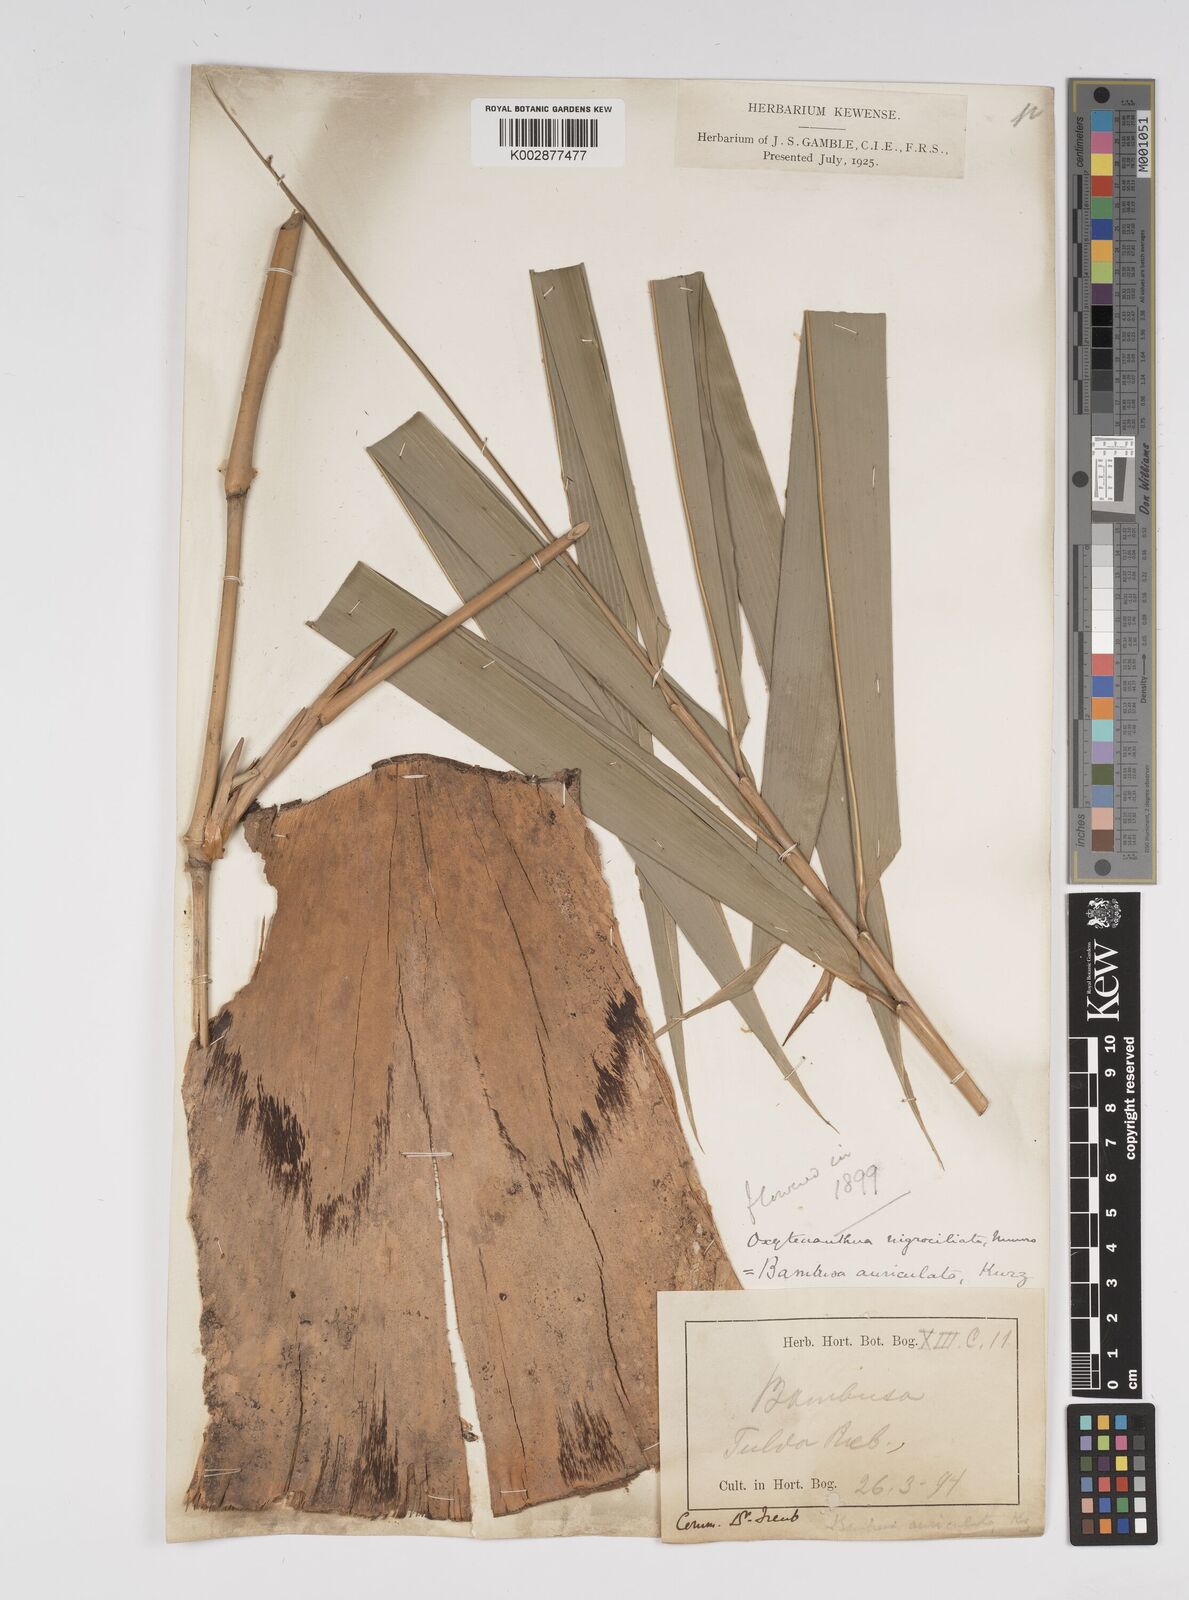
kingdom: Plantae
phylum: Tracheophyta
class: Liliopsida
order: Poales
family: Poaceae
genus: Bambusa
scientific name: Bambusa
